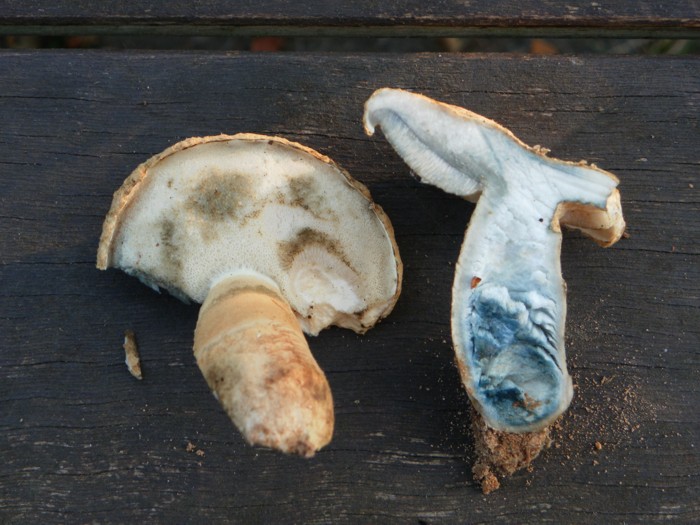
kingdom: Fungi
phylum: Basidiomycota
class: Agaricomycetes
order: Boletales
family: Gyroporaceae
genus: Gyroporus
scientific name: Gyroporus cyanescens
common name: blånende kammerrørhat
